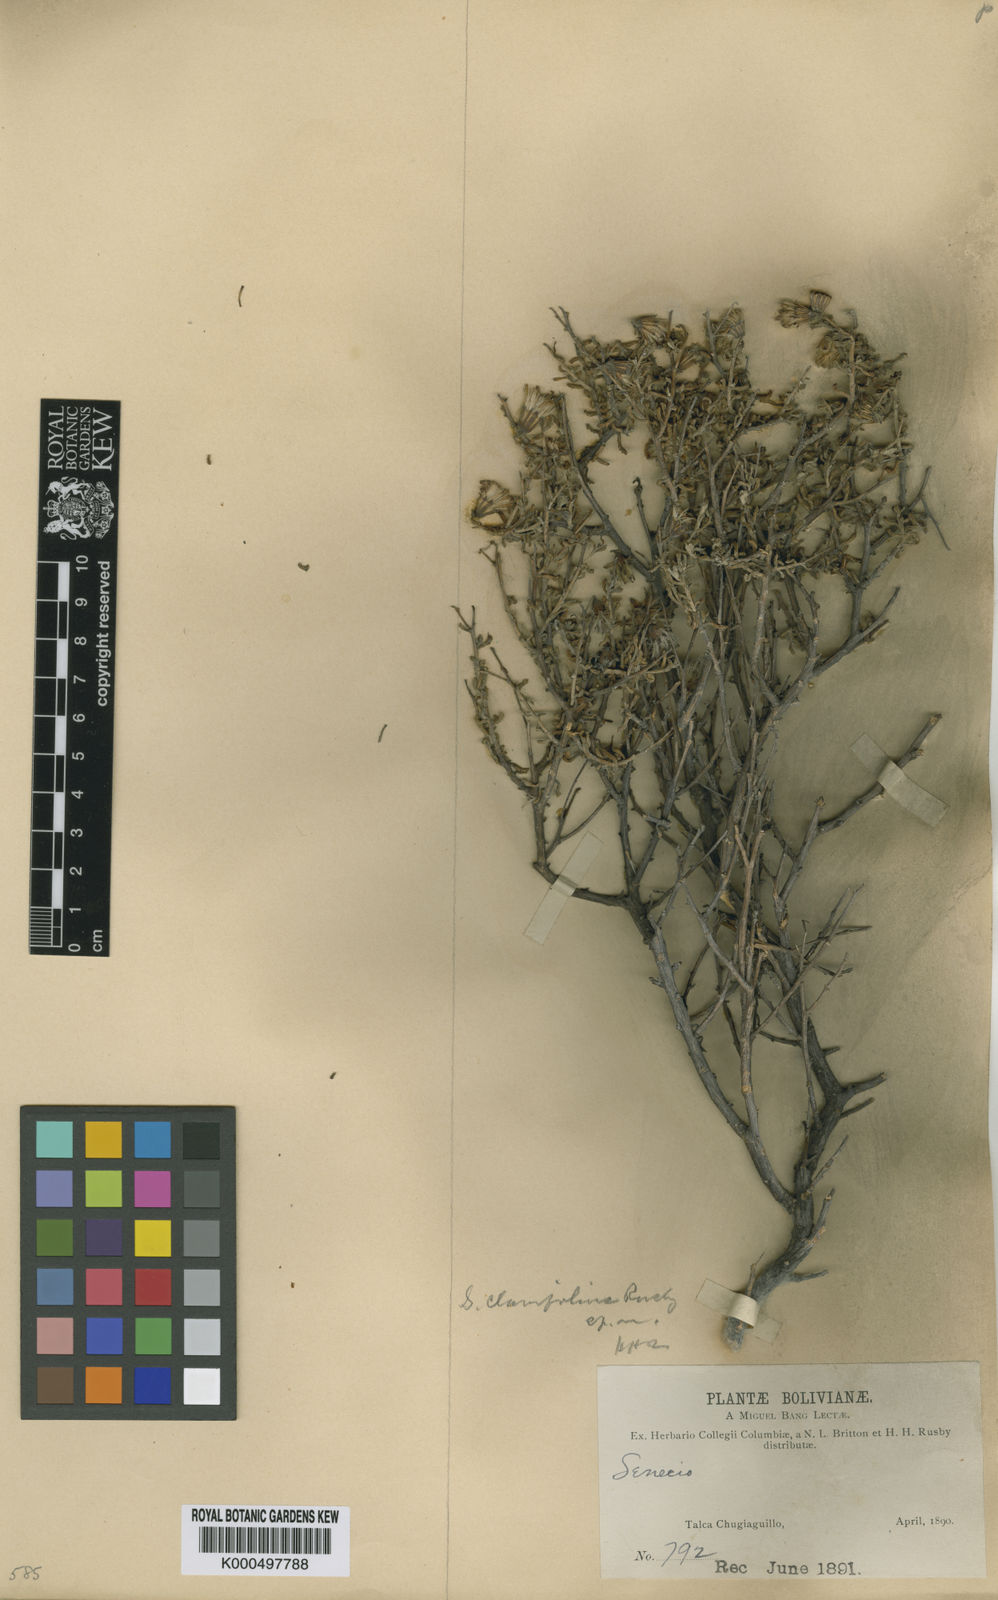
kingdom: Plantae
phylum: Tracheophyta
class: Magnoliopsida
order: Asterales
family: Asteraceae
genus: Senecio
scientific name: Senecio potosianus
